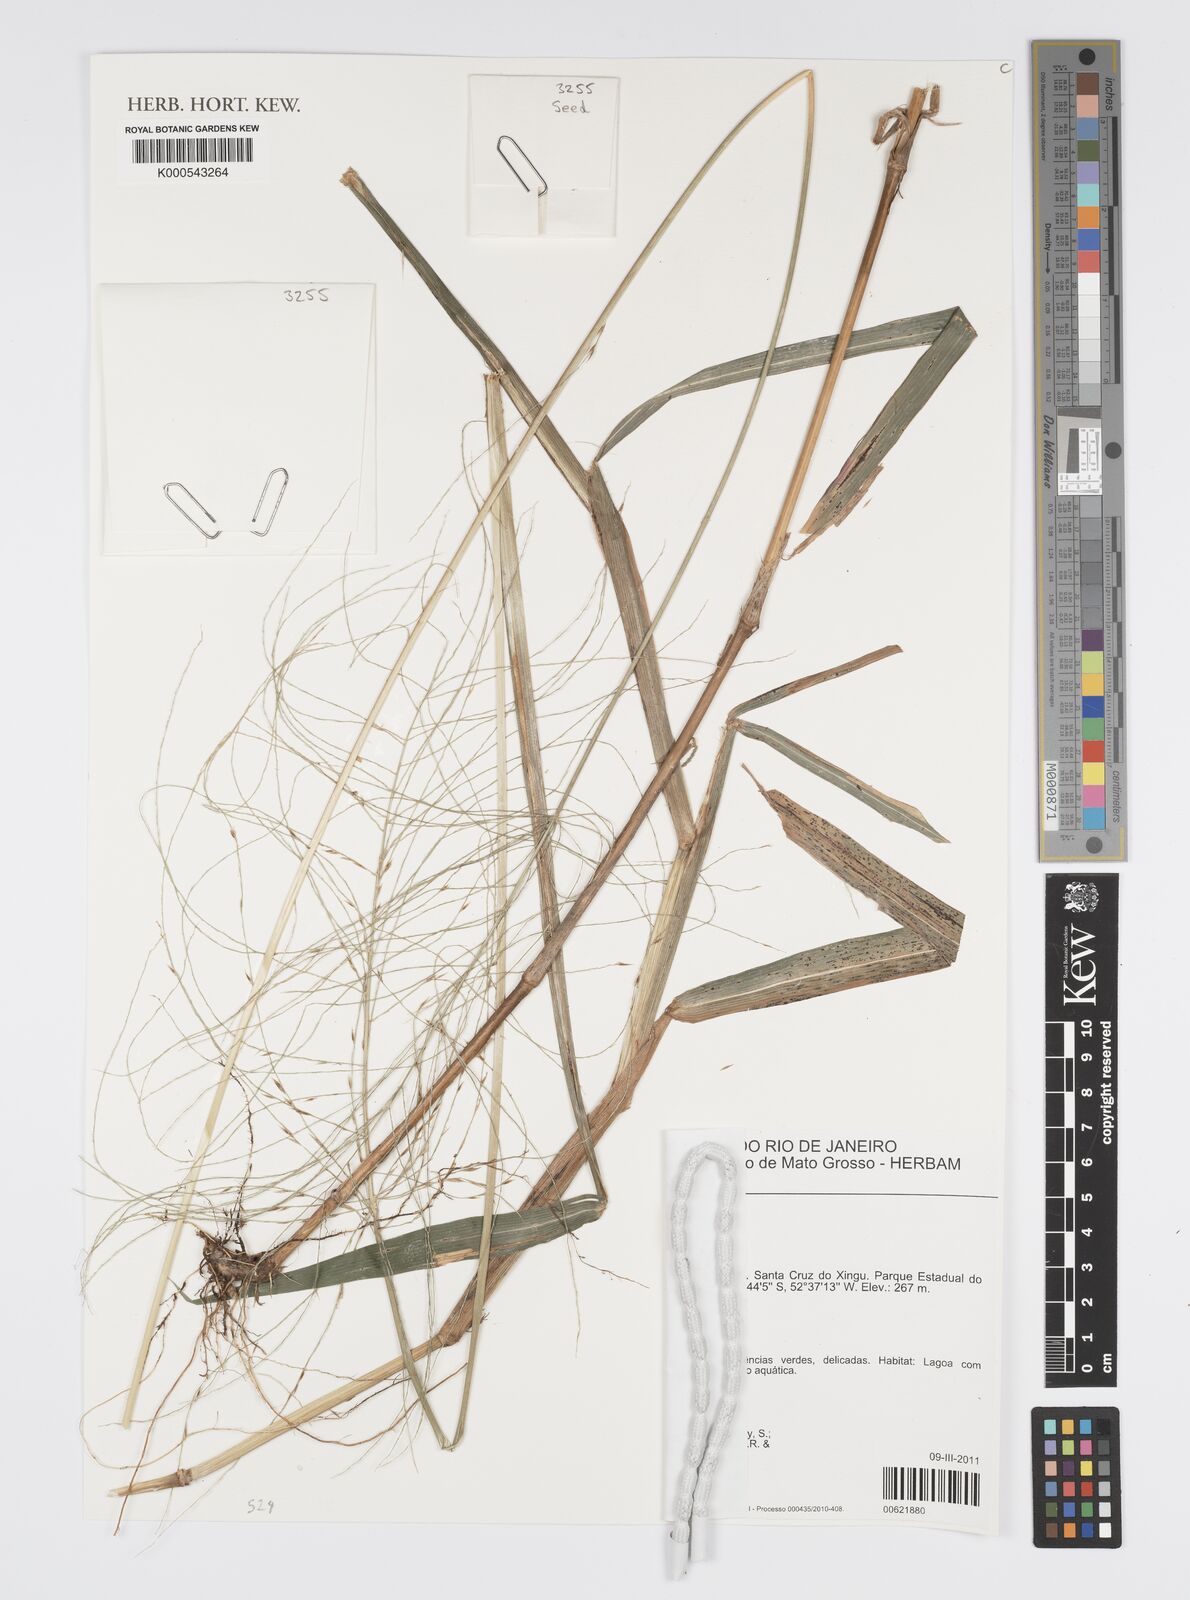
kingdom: Plantae
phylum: Tracheophyta
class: Liliopsida
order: Poales
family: Poaceae
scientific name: Poaceae
